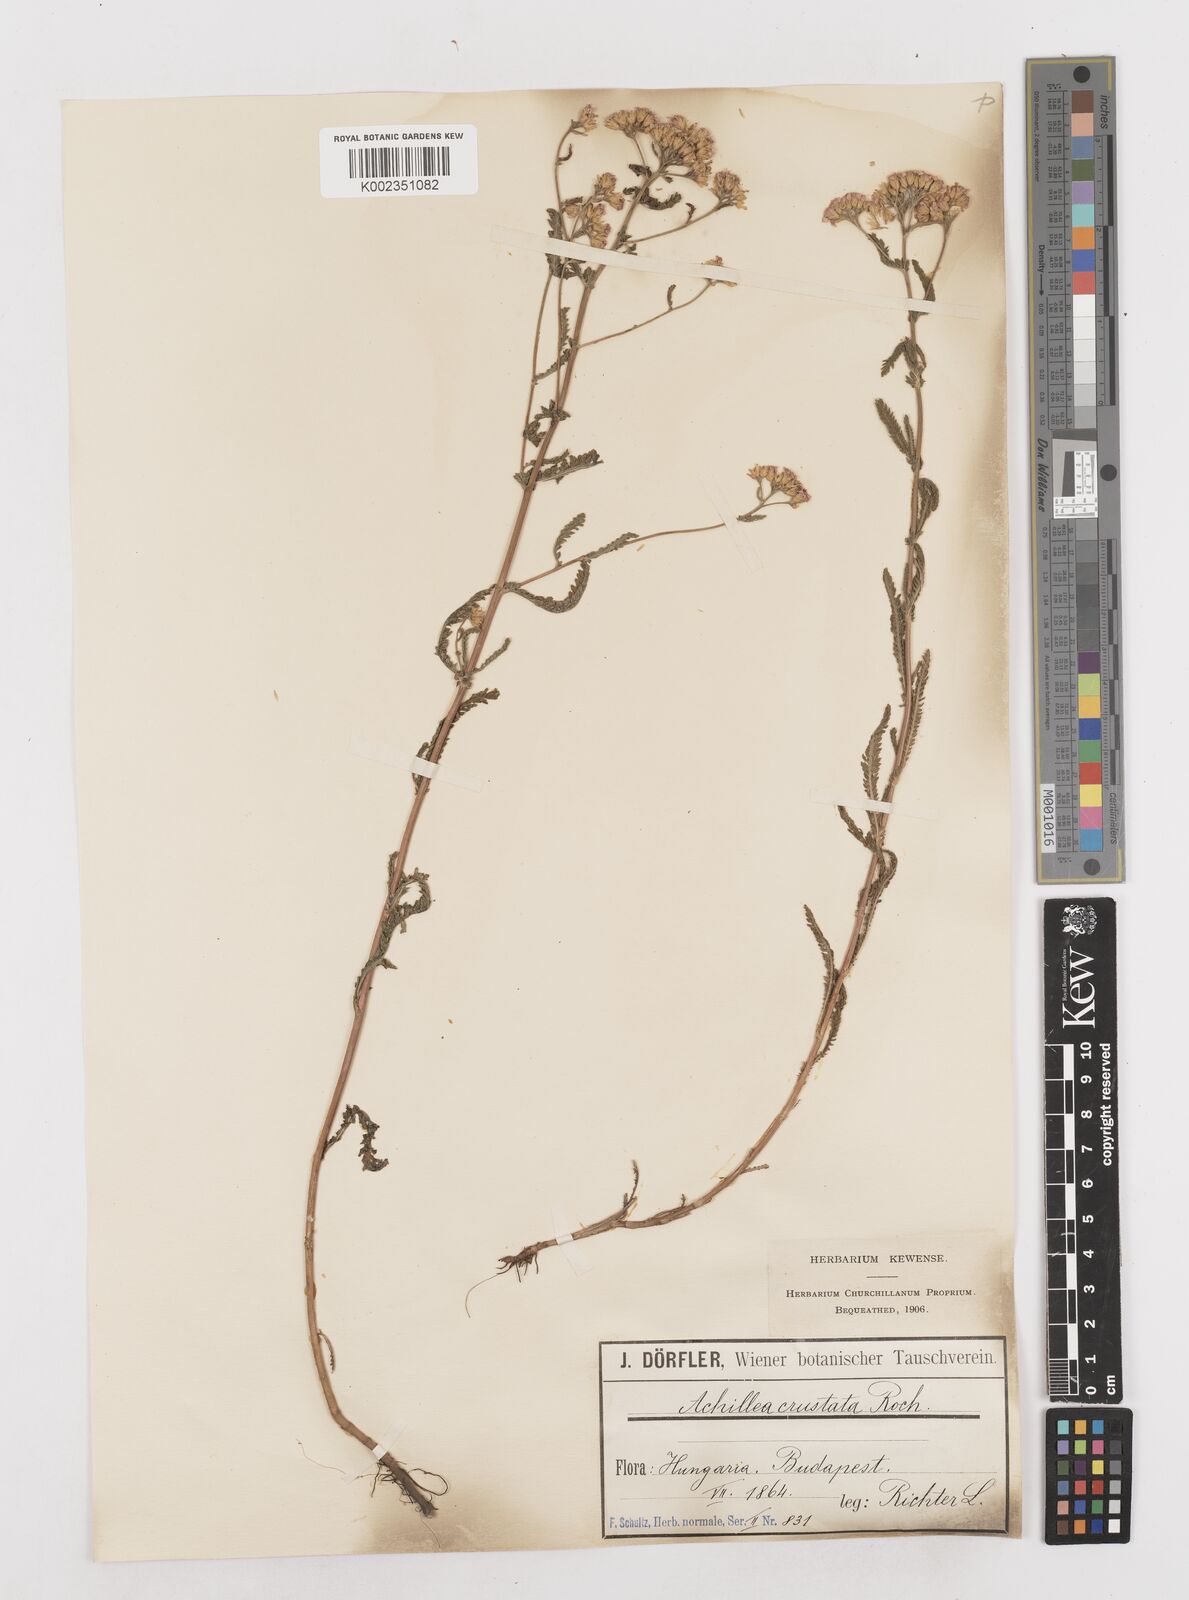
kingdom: Plantae
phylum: Tracheophyta
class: Magnoliopsida
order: Asterales
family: Asteraceae
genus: Achillea
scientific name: Achillea millefolium
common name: Yarrow
